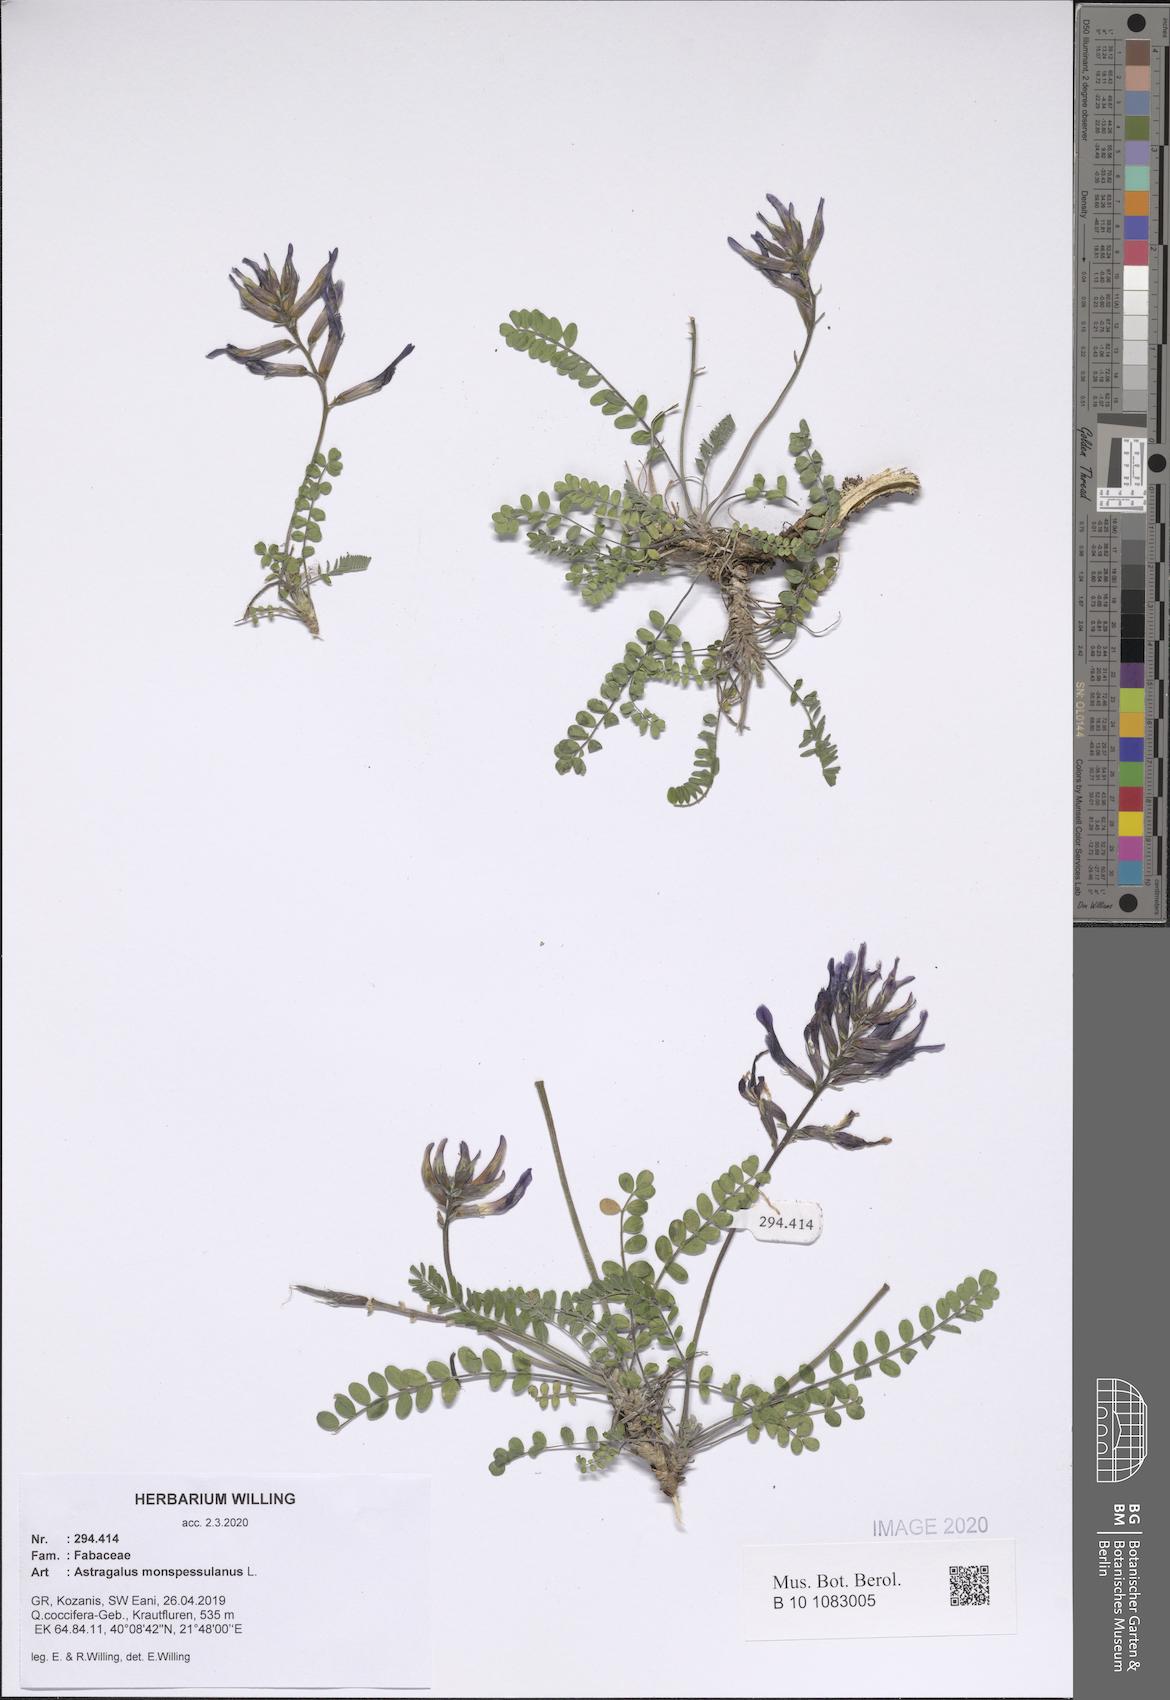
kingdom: Plantae
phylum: Tracheophyta
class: Magnoliopsida
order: Fabales
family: Fabaceae
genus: Astragalus
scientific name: Astragalus monspessulanus
